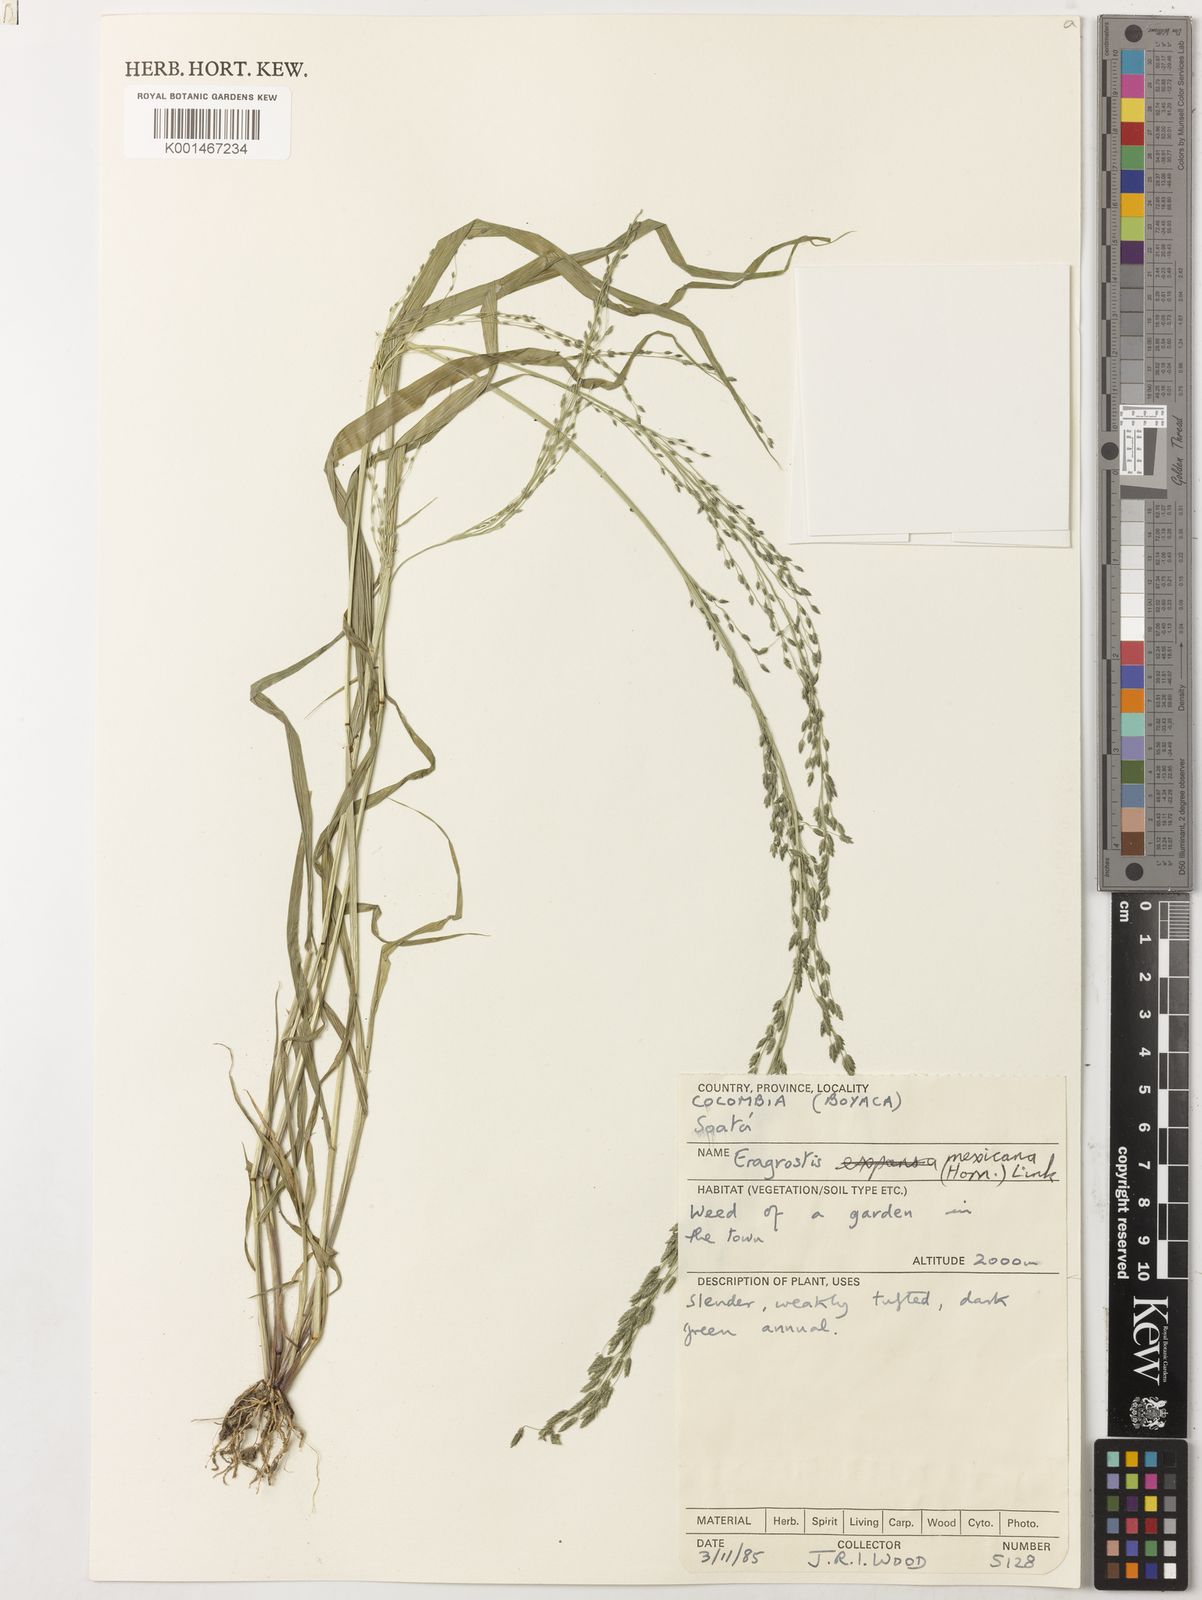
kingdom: Plantae
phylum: Tracheophyta
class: Liliopsida
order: Poales
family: Poaceae
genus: Eragrostis
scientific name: Eragrostis mexicana
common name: Mexican love grass
